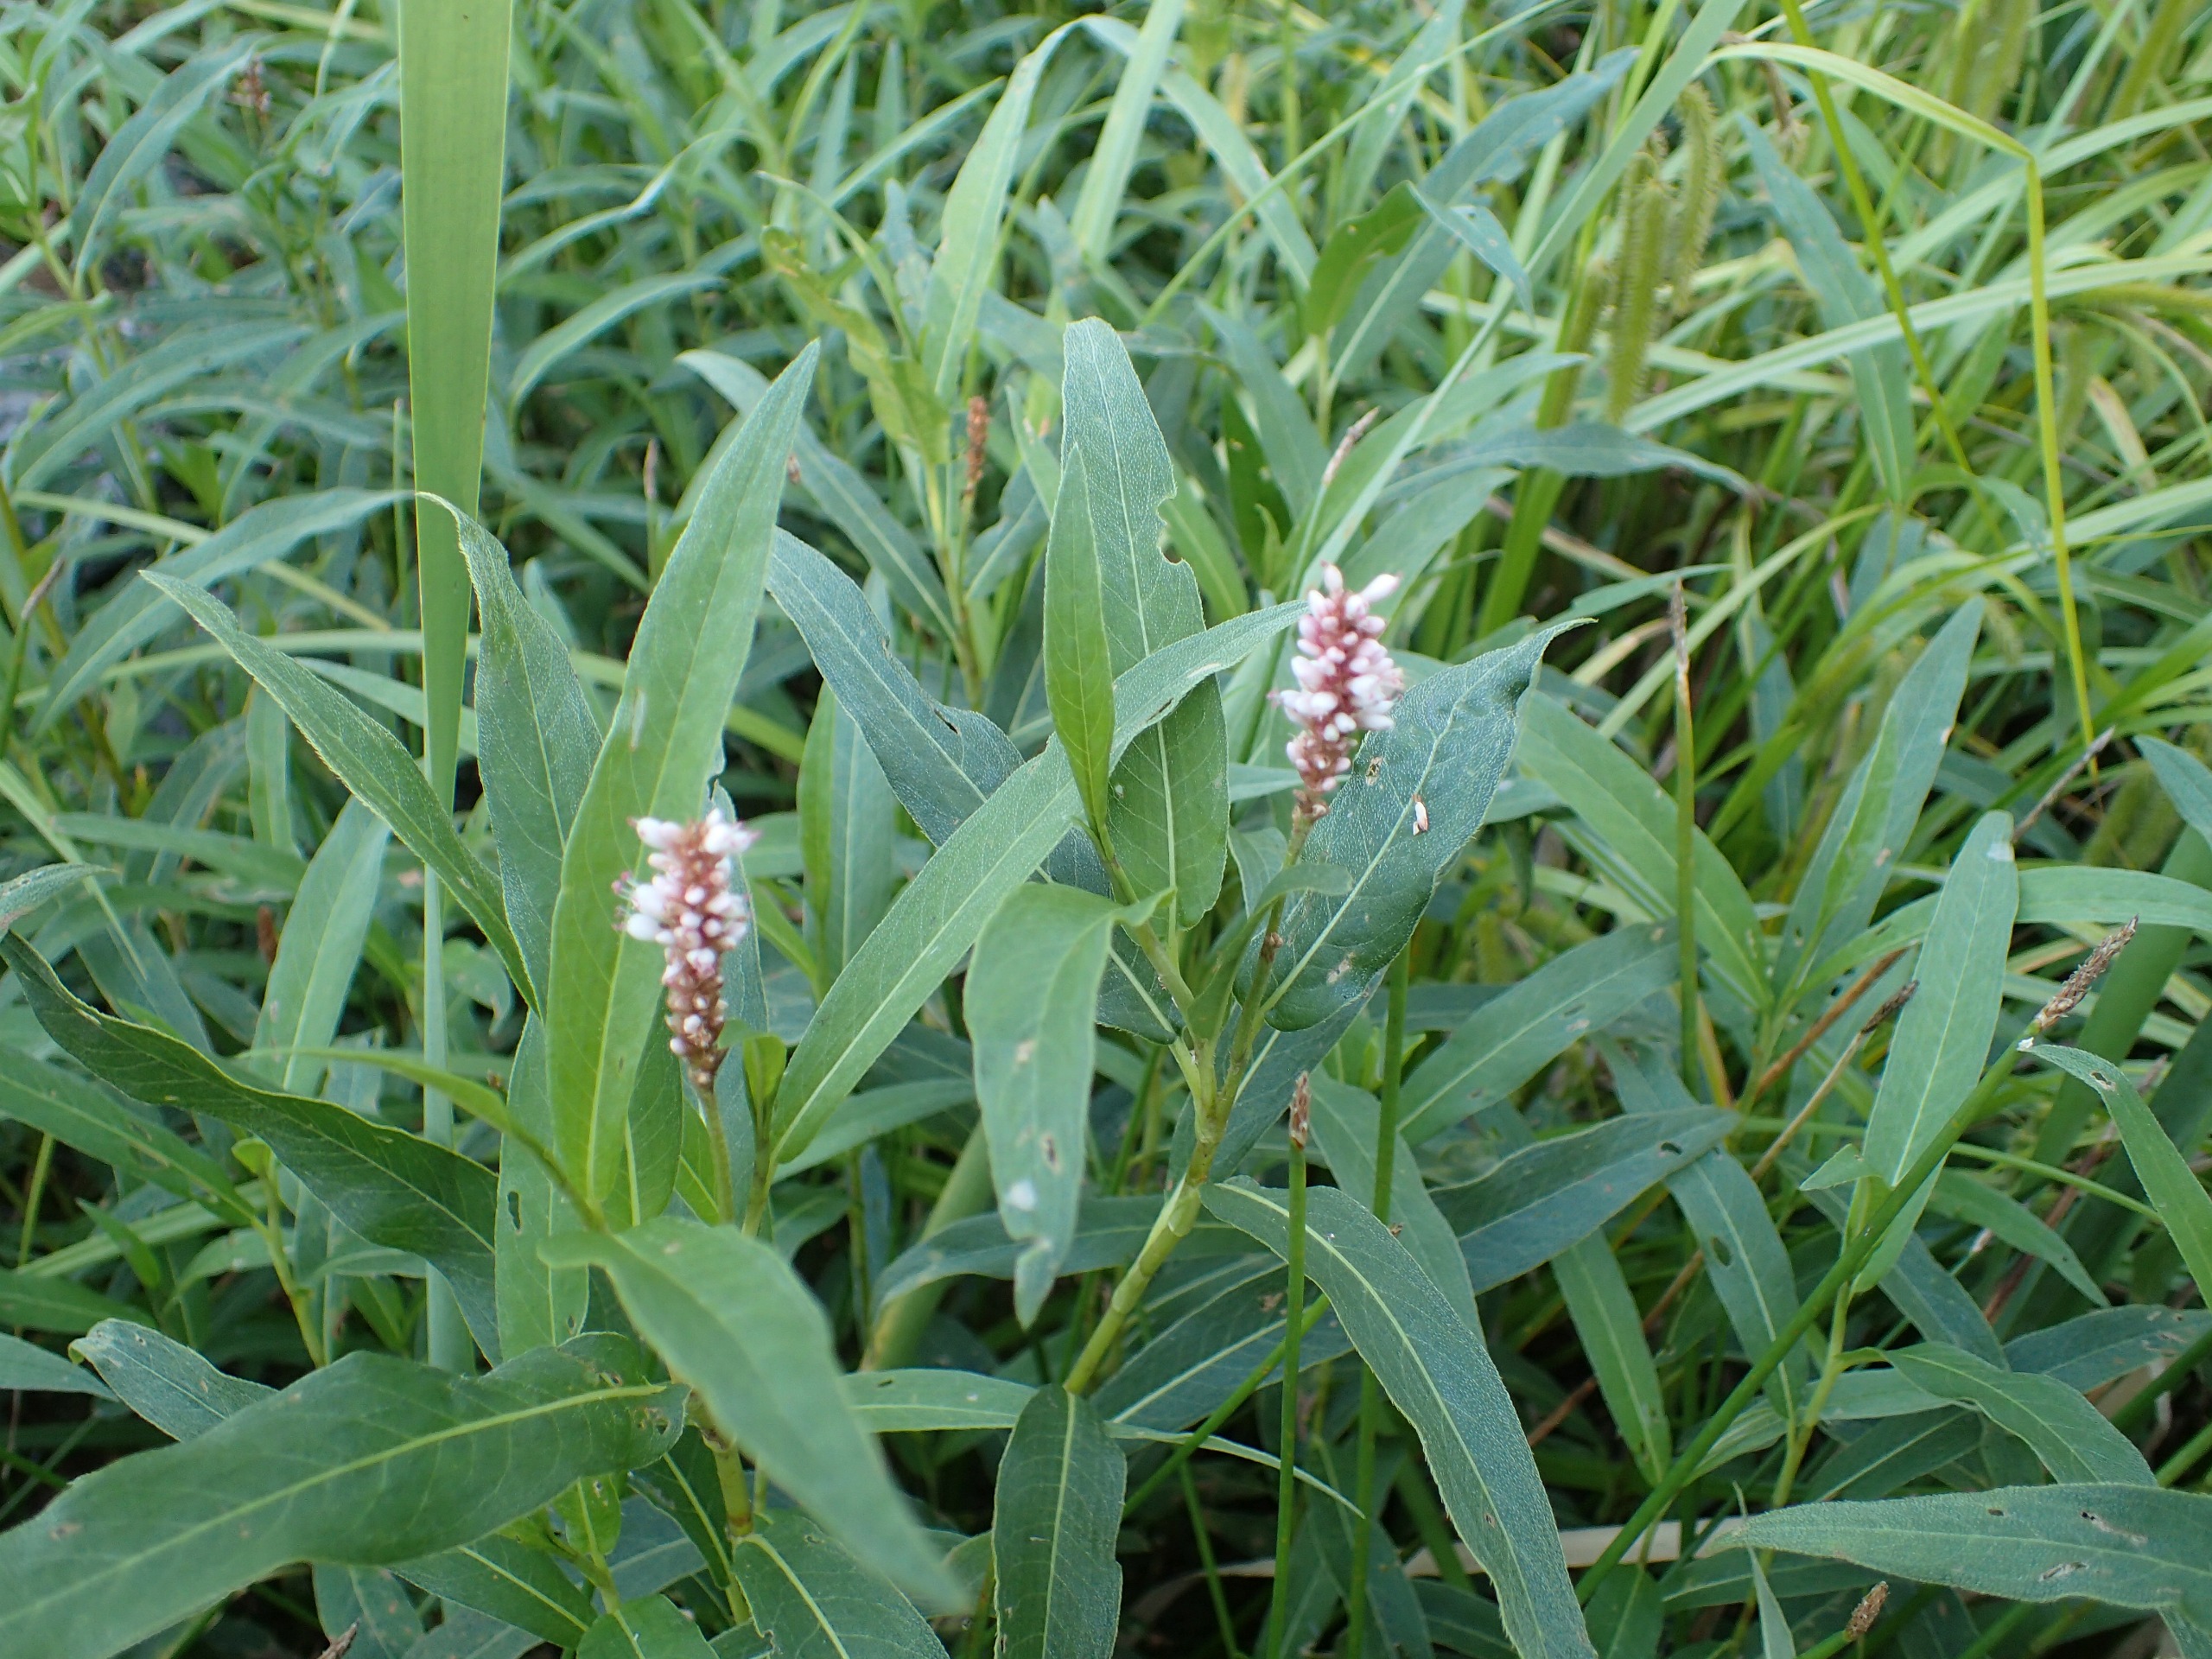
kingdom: Plantae
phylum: Tracheophyta
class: Magnoliopsida
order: Caryophyllales
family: Polygonaceae
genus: Persicaria
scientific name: Persicaria amphibia
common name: Vand-pileurt
